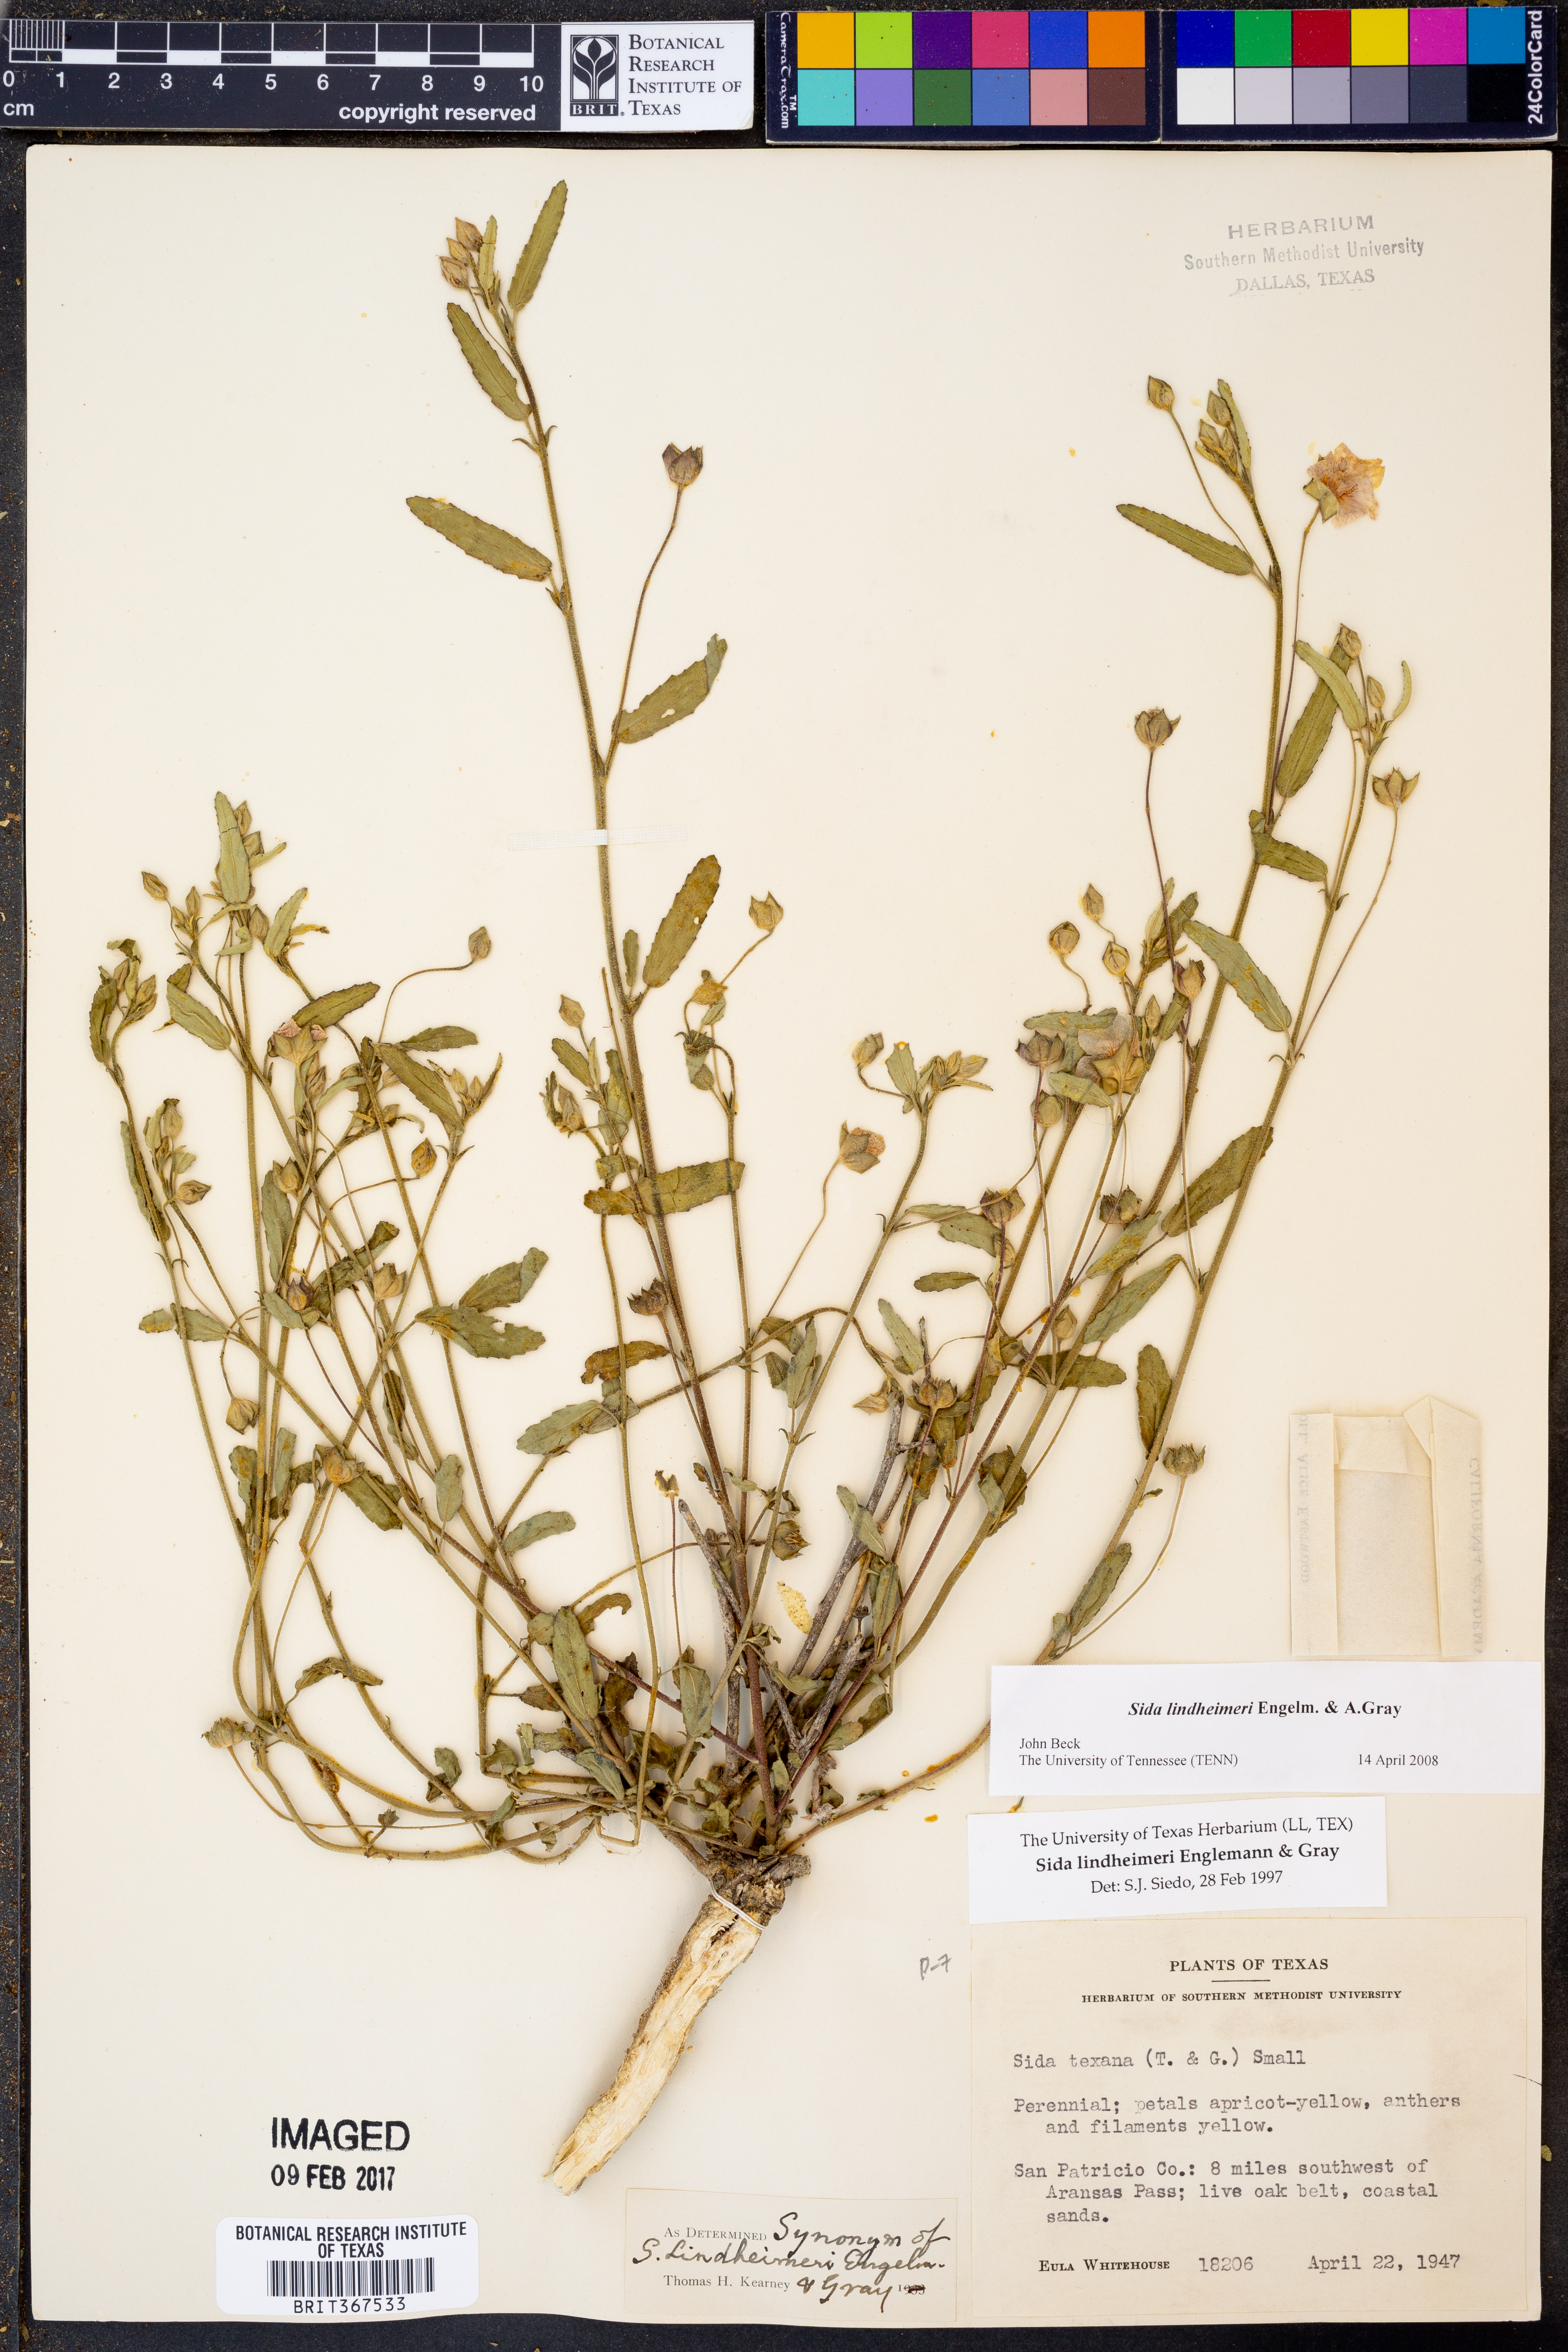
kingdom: Plantae
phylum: Tracheophyta
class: Magnoliopsida
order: Malvales
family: Malvaceae
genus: Sida
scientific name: Sida lindheimeri
